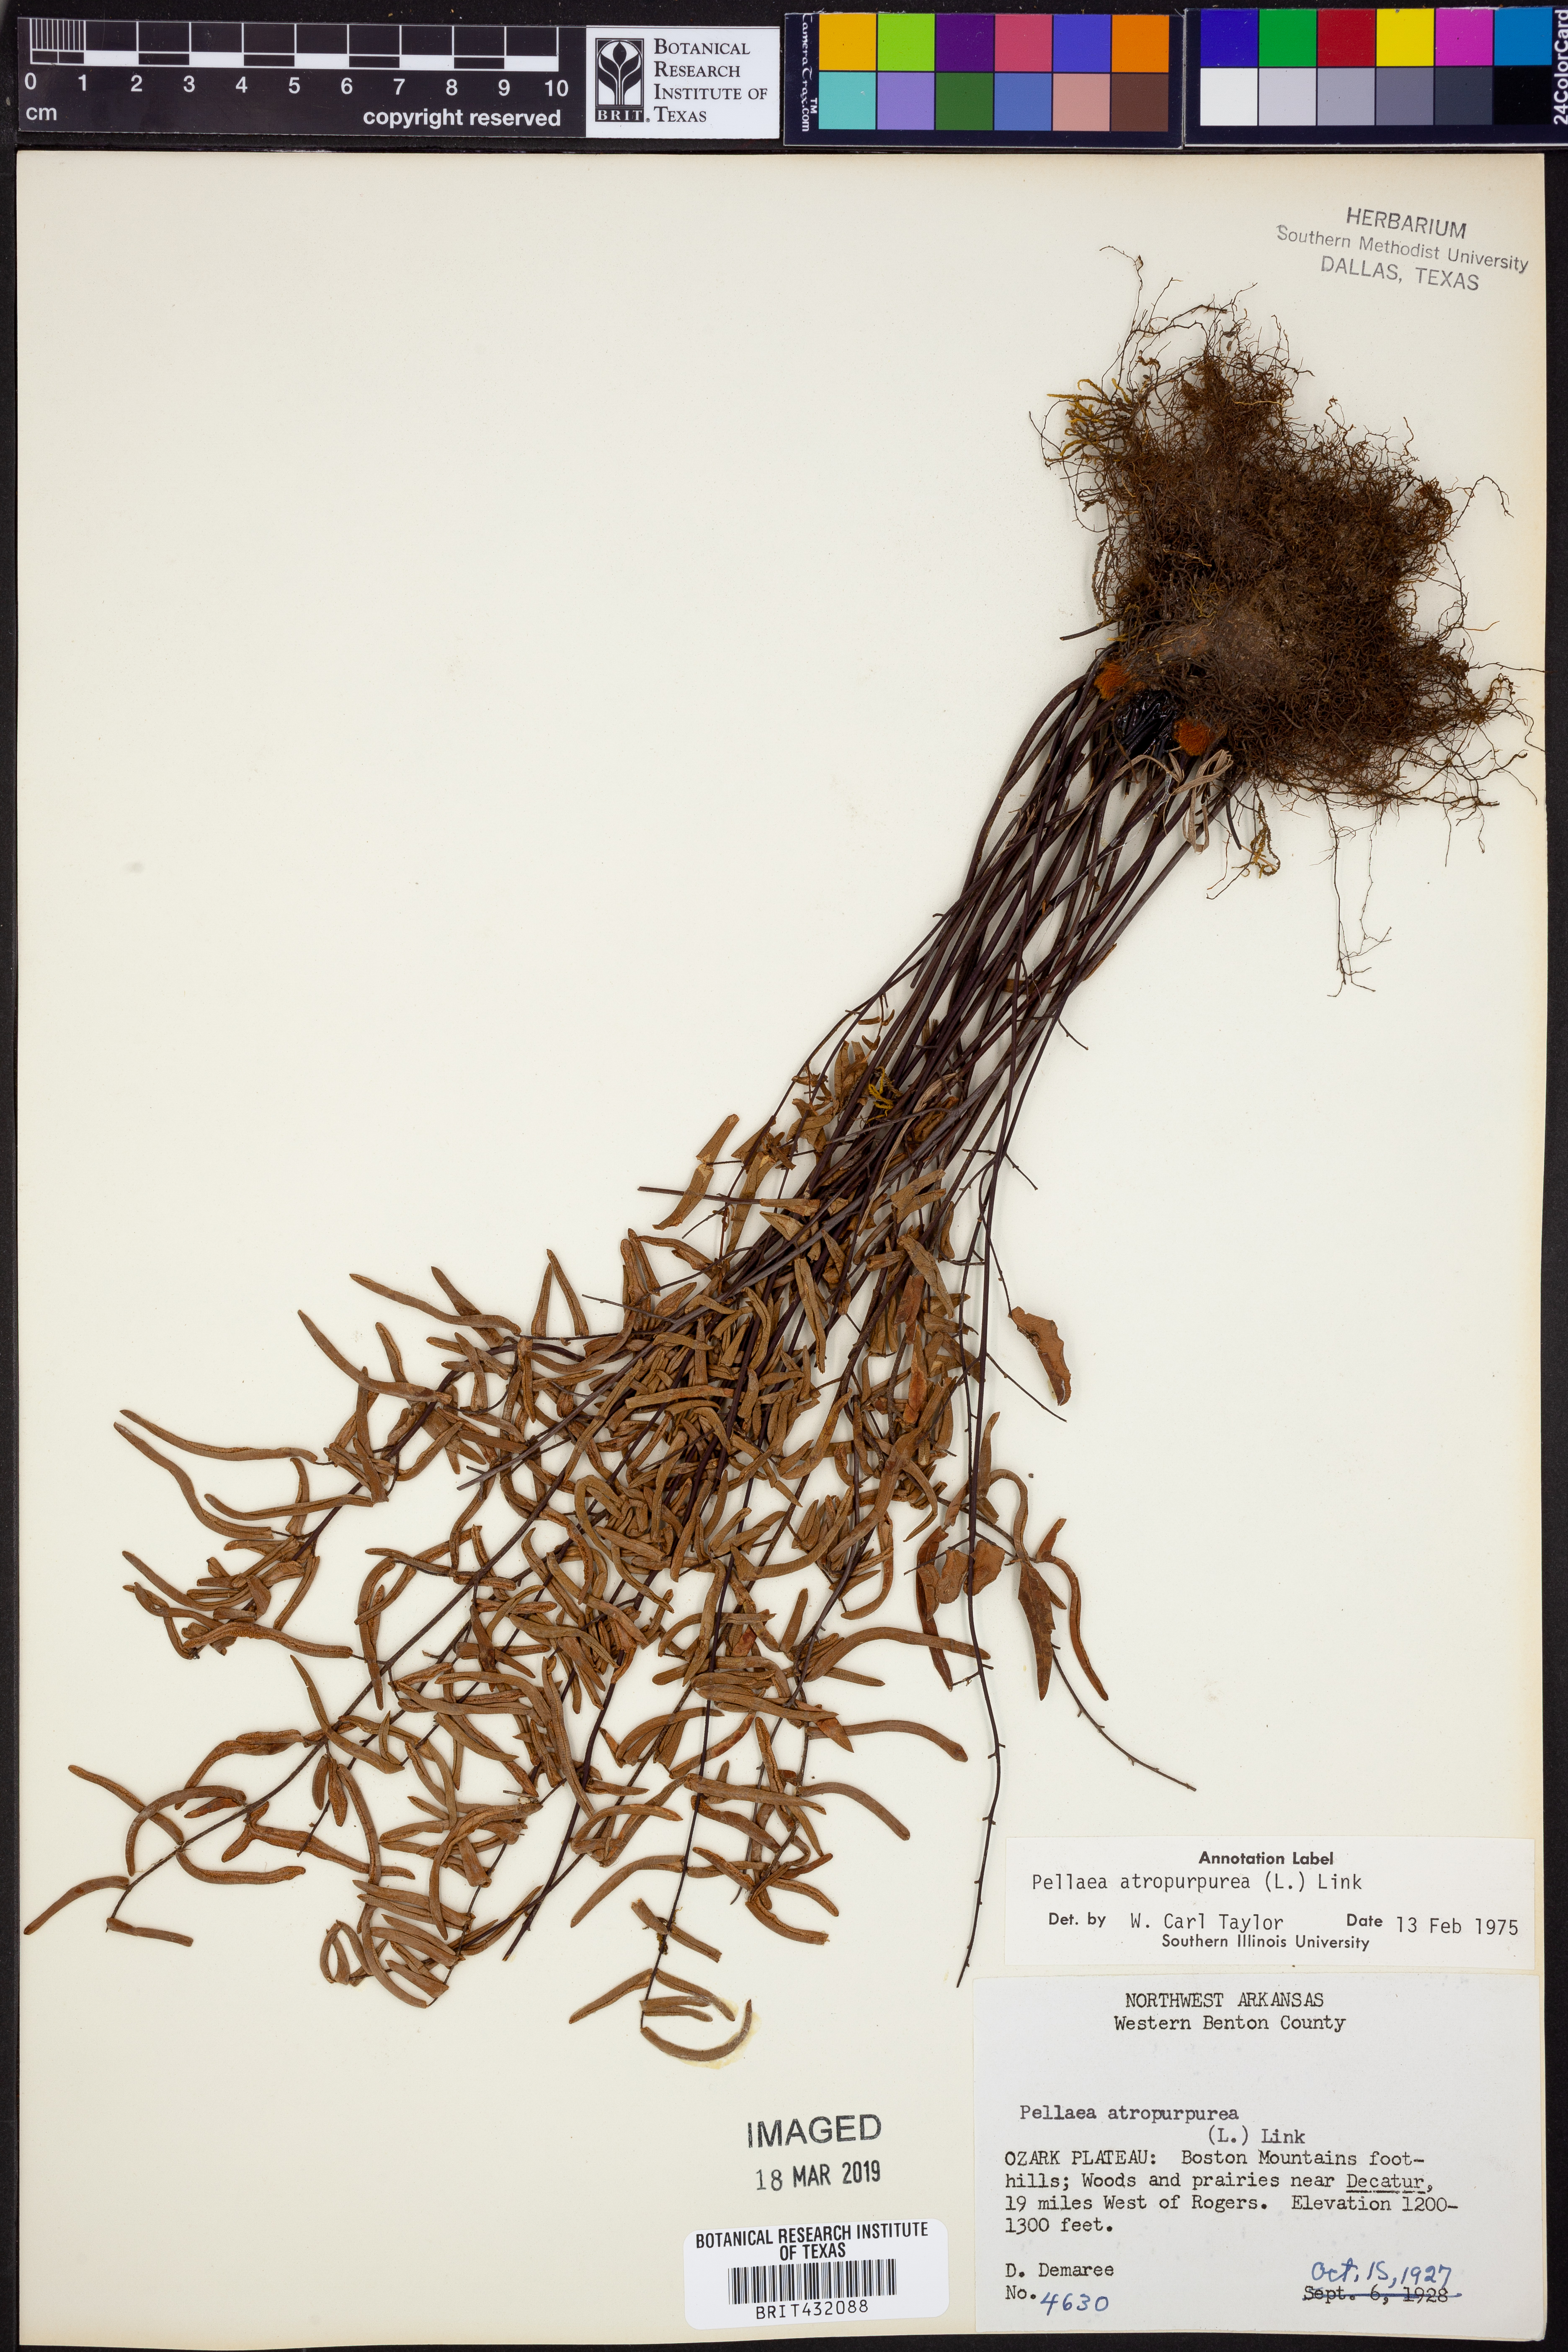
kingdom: Plantae
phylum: Tracheophyta
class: Polypodiopsida
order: Polypodiales
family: Pteridaceae
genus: Pellaea
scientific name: Pellaea atropurpurea
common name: Hairy cliffbrake
